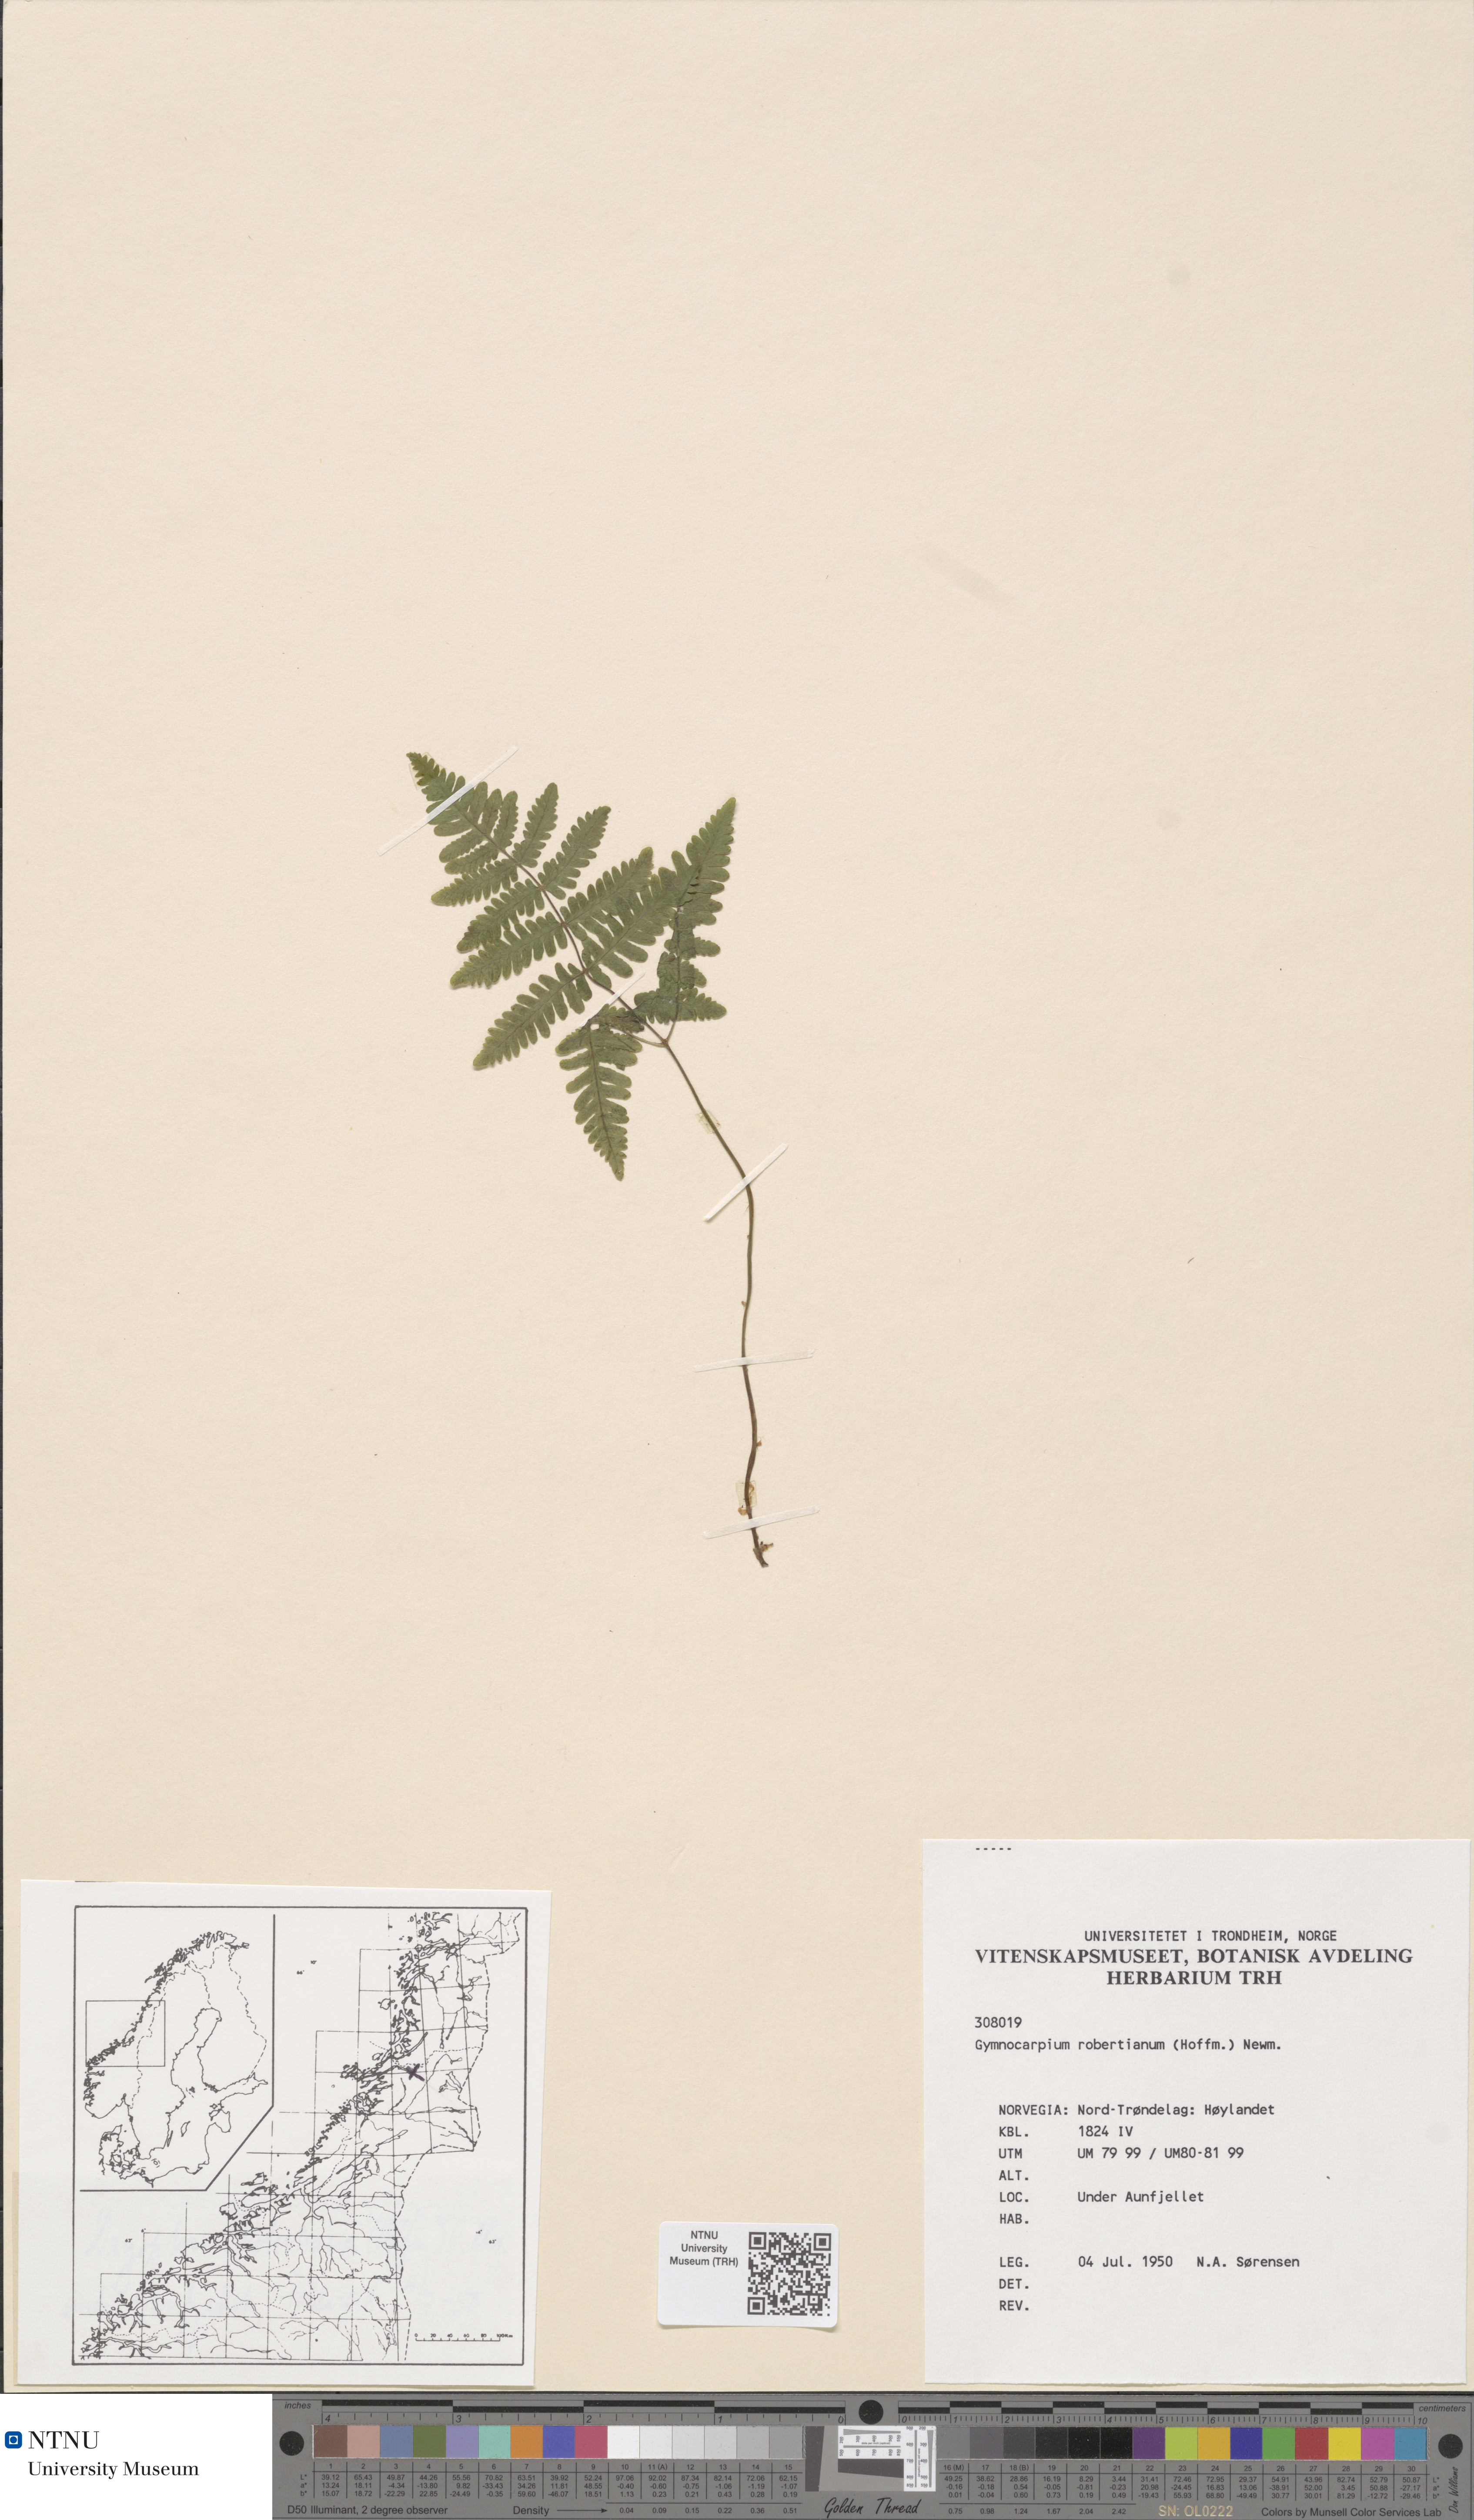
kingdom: Plantae
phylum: Tracheophyta
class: Polypodiopsida
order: Polypodiales
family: Cystopteridaceae
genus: Gymnocarpium
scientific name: Gymnocarpium robertianum
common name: Limestone fern
